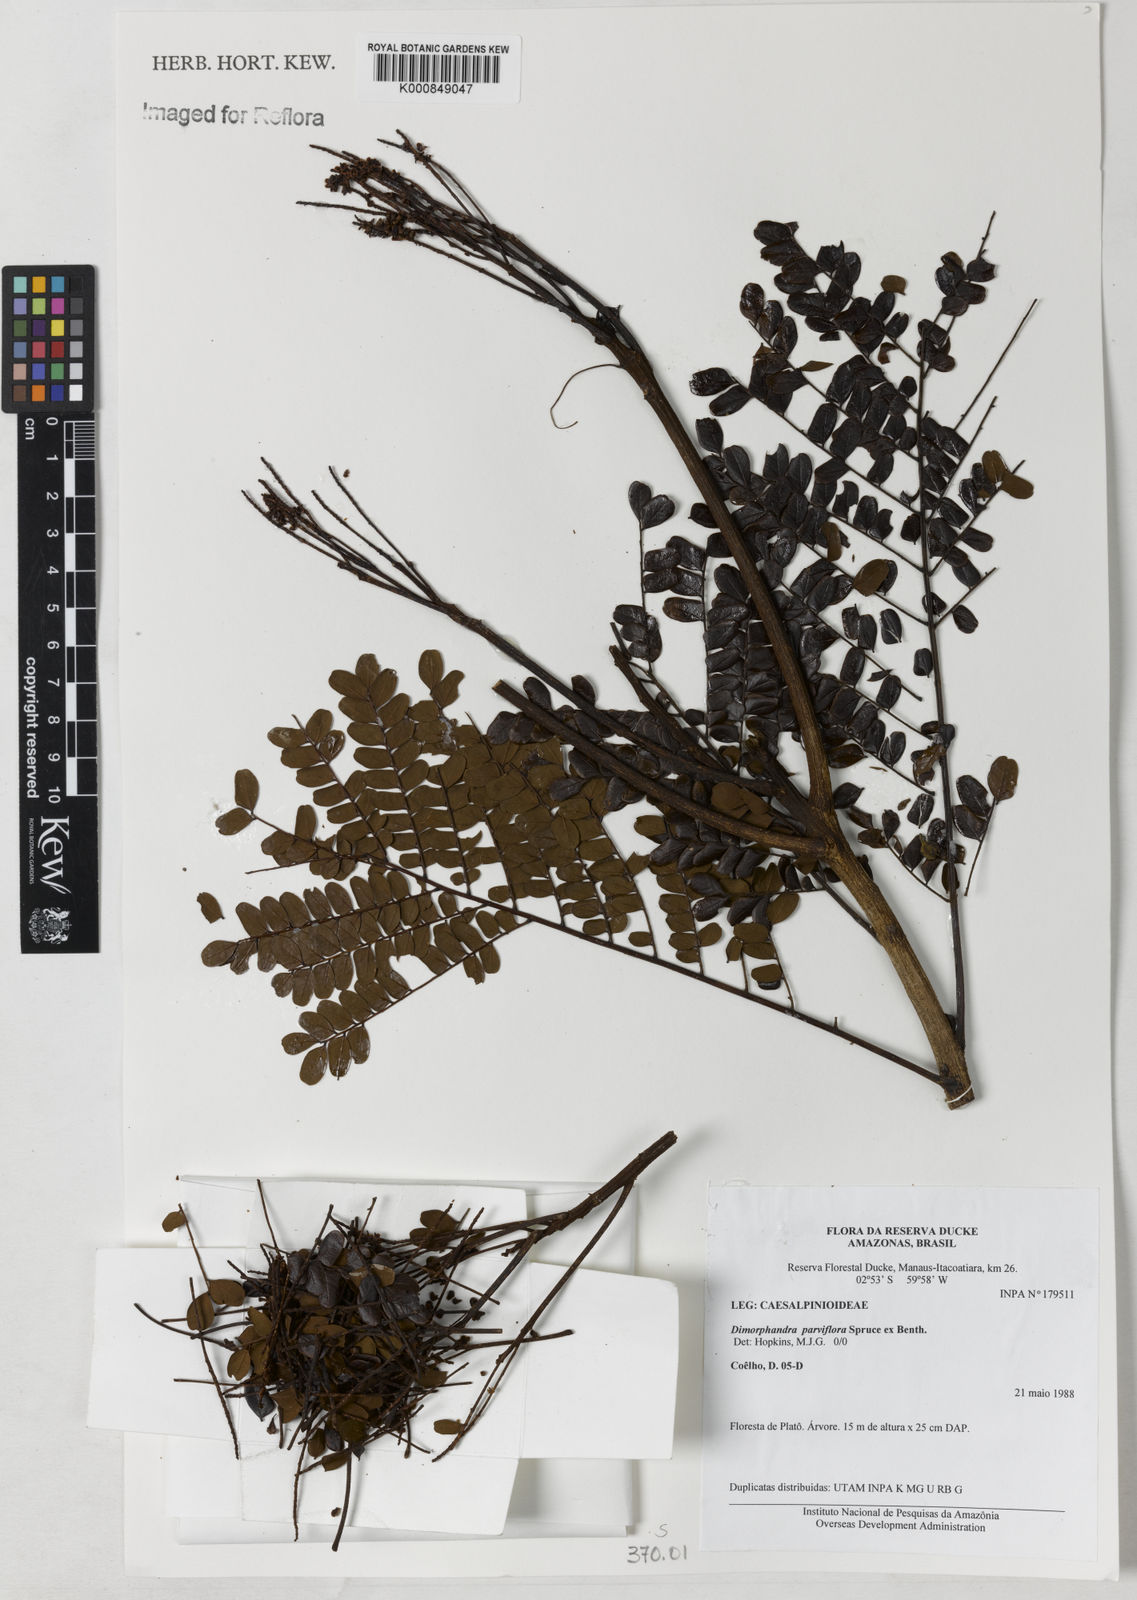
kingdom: Plantae
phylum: Tracheophyta
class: Magnoliopsida
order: Fabales
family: Fabaceae
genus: Dimorphandra
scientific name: Dimorphandra parviflora
